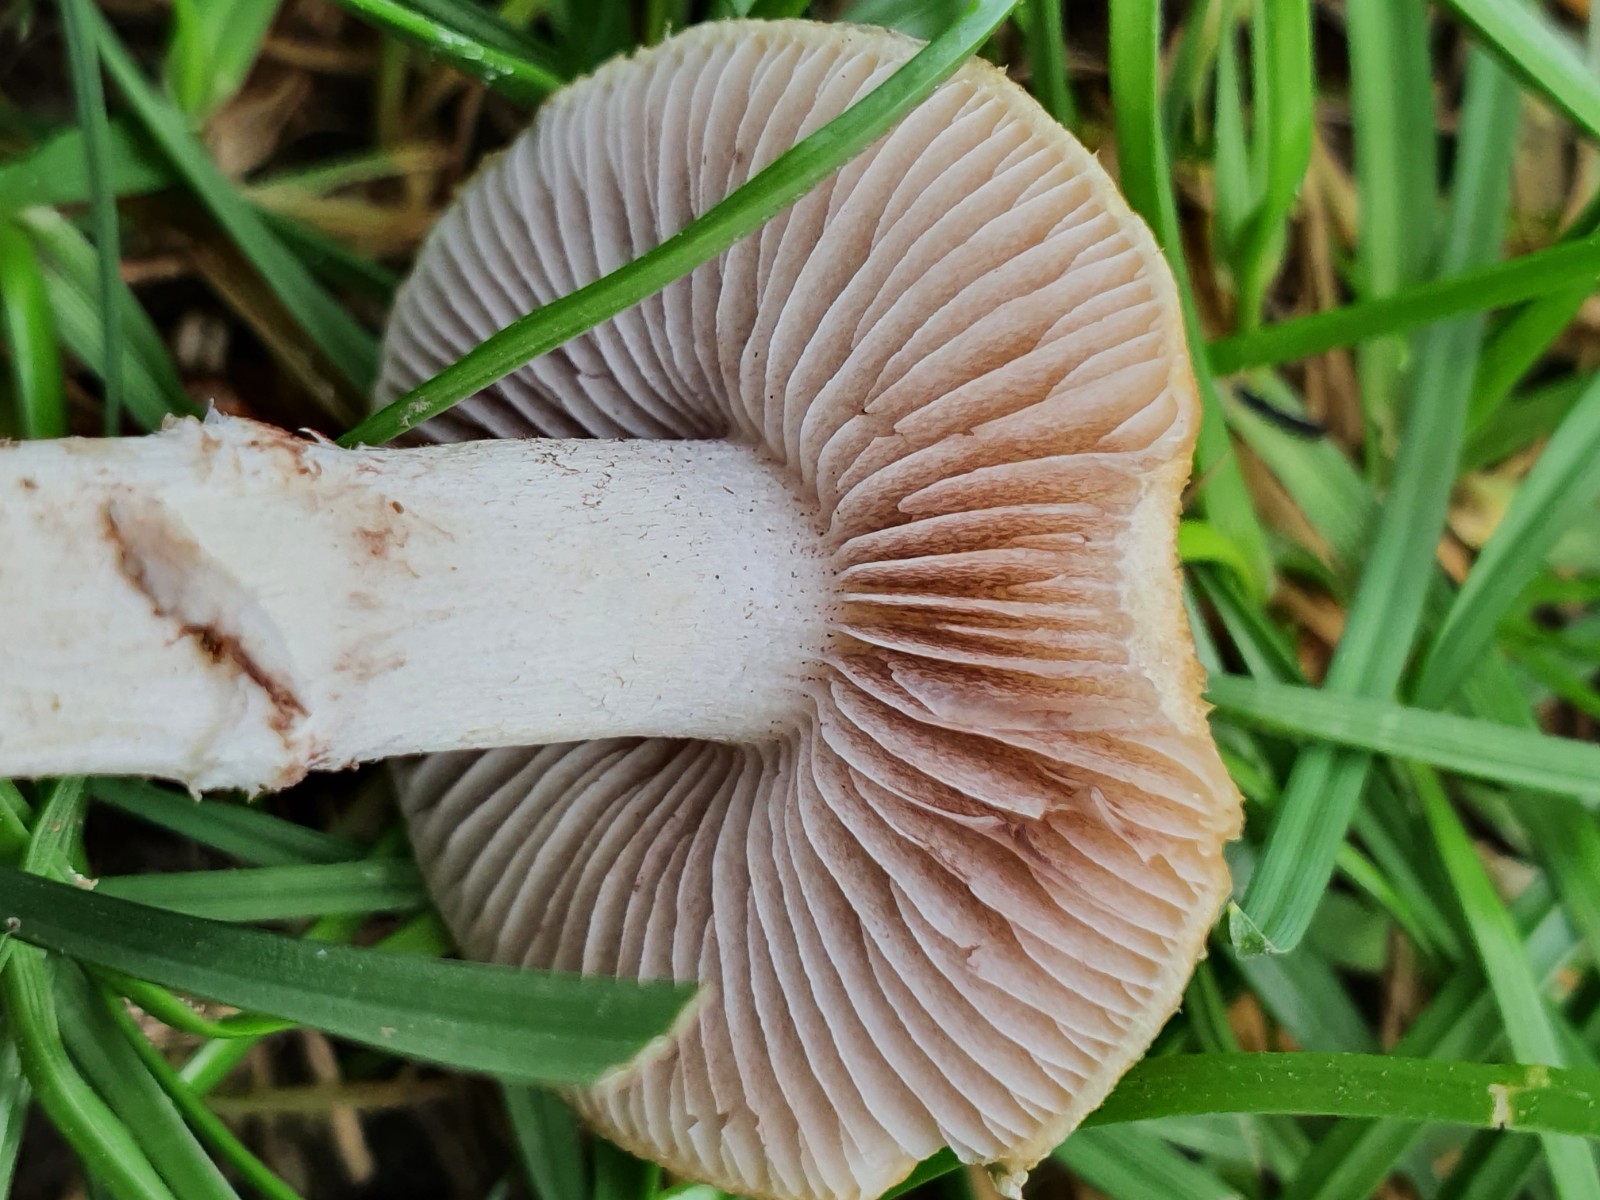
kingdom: Fungi
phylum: Basidiomycota
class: Agaricomycetes
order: Agaricales
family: Hymenogastraceae
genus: Psilocybe
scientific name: Psilocybe coronilla
